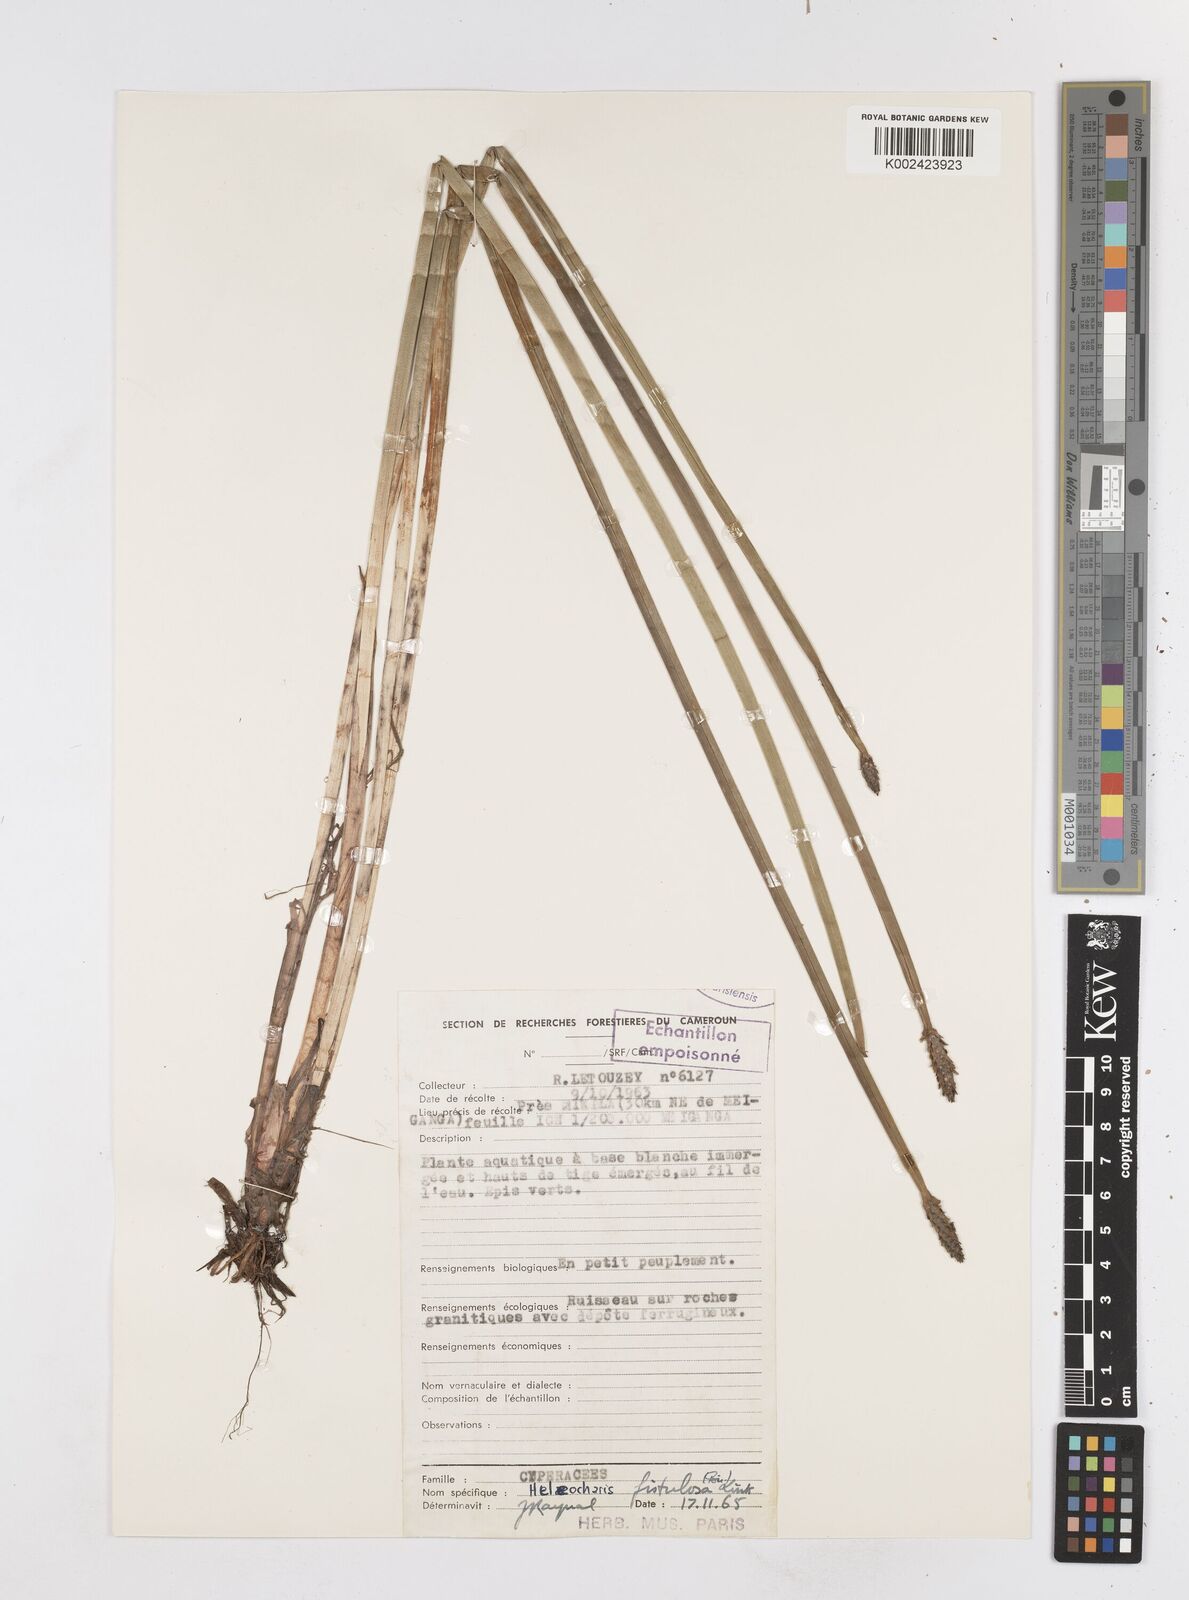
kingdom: Plantae
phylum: Tracheophyta
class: Liliopsida
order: Poales
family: Cyperaceae
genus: Eleocharis
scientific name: Eleocharis acutangula
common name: Acute spikerush
